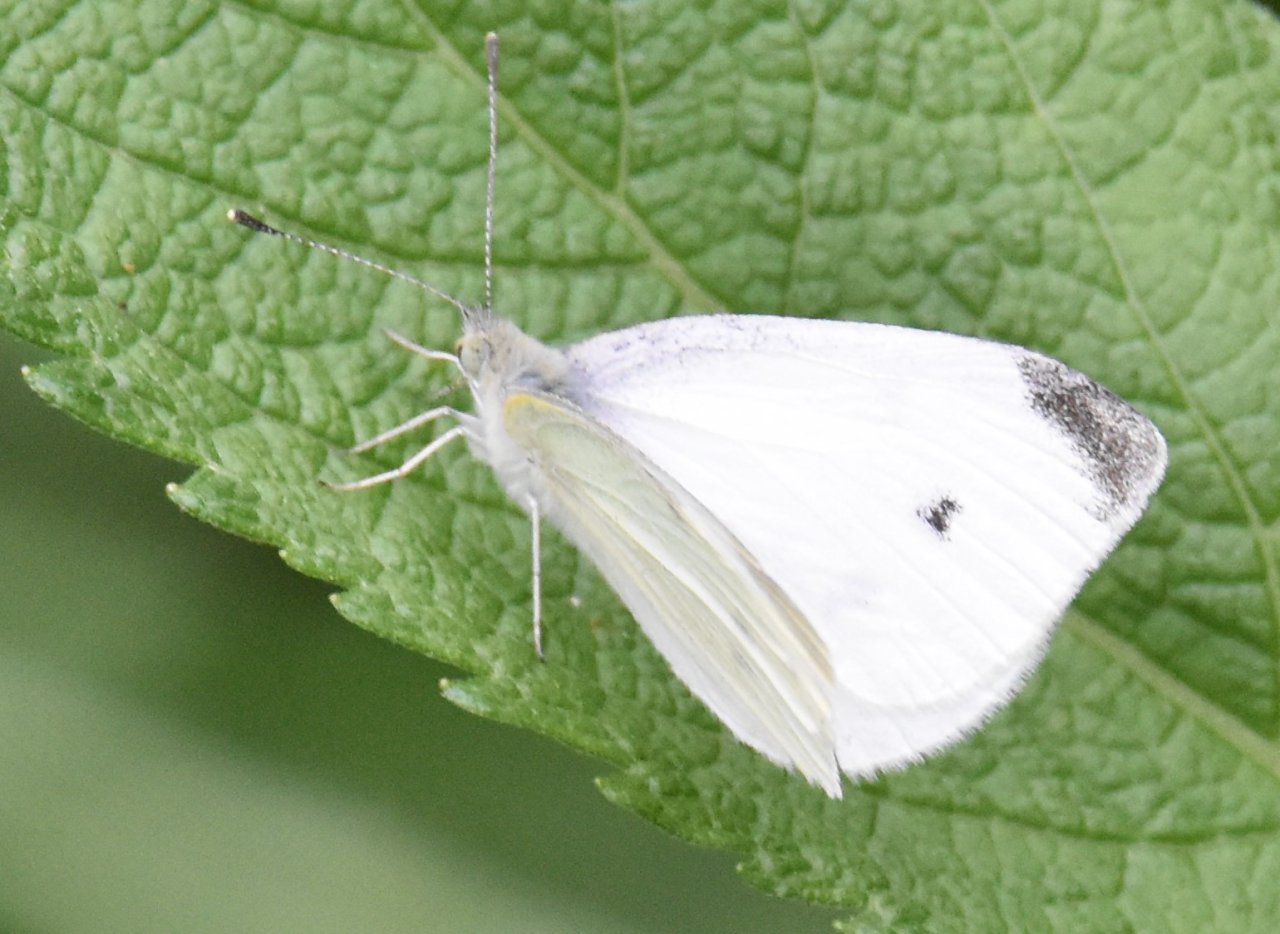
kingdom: Animalia
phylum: Arthropoda
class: Insecta
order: Lepidoptera
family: Pieridae
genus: Pieris
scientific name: Pieris rapae
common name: Cabbage White
